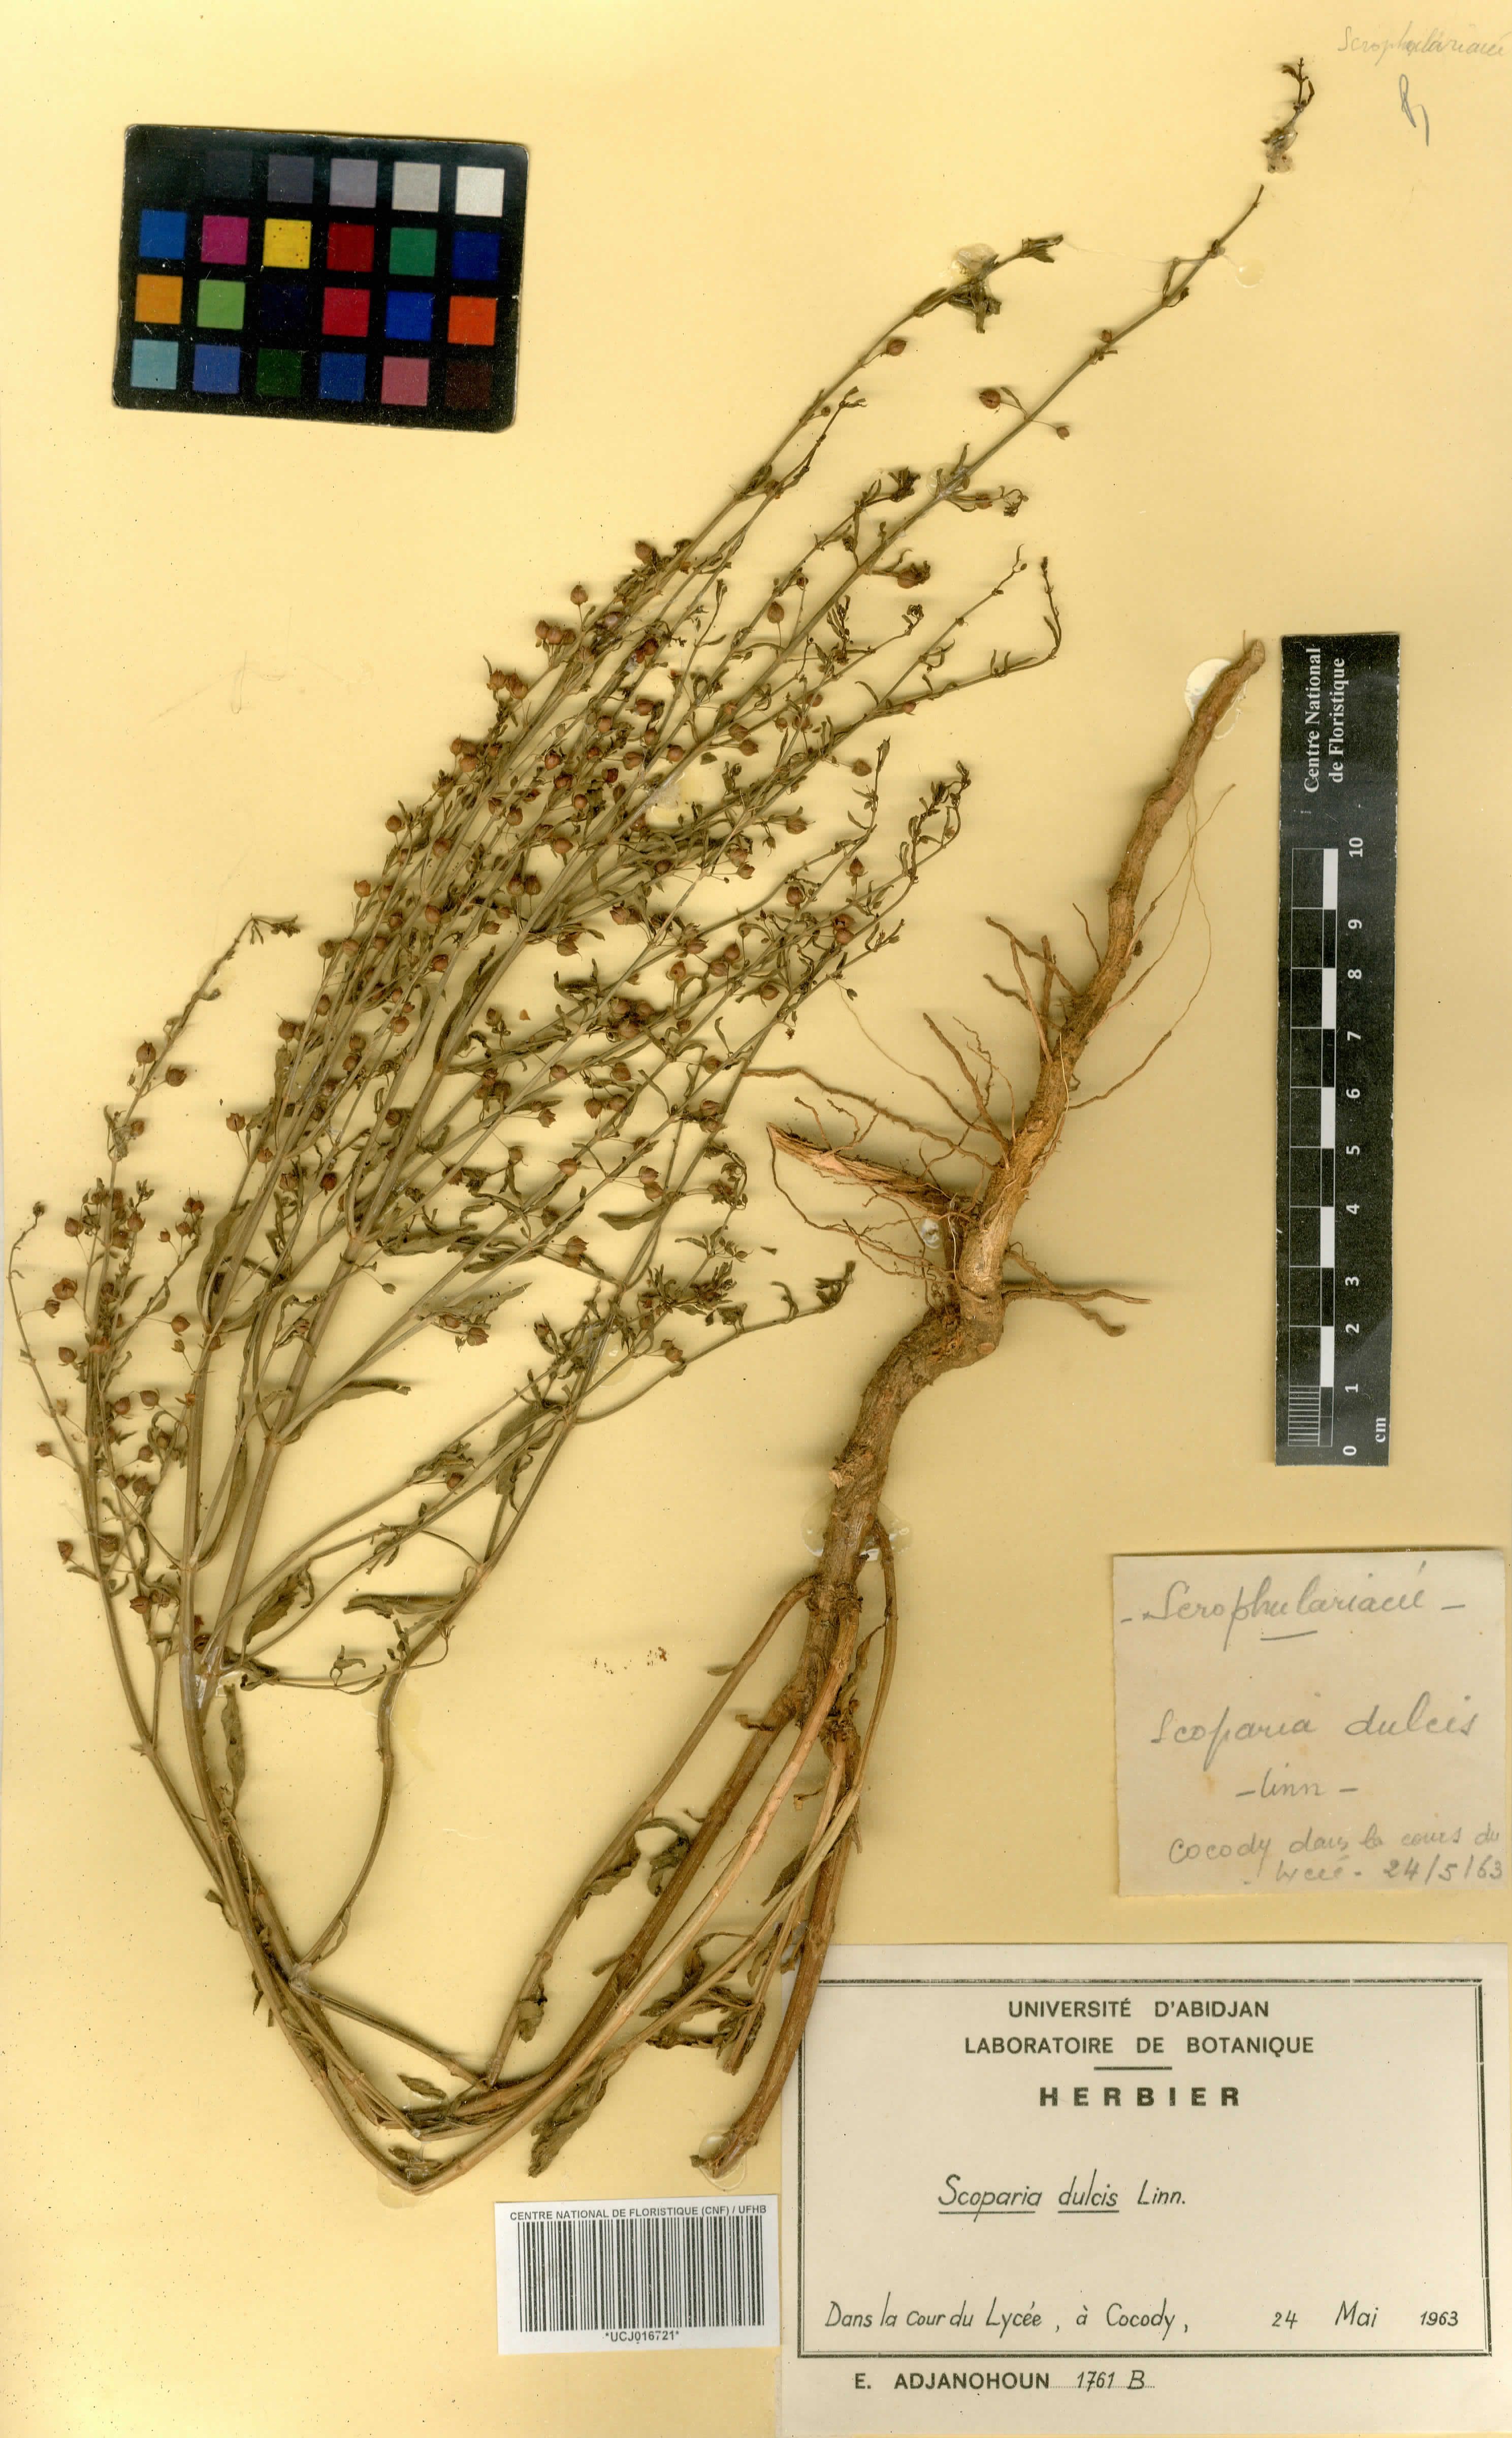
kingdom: Plantae
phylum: Tracheophyta
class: Magnoliopsida
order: Lamiales
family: Plantaginaceae
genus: Scoparia
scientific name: Scoparia dulcis
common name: Scoparia-weed
